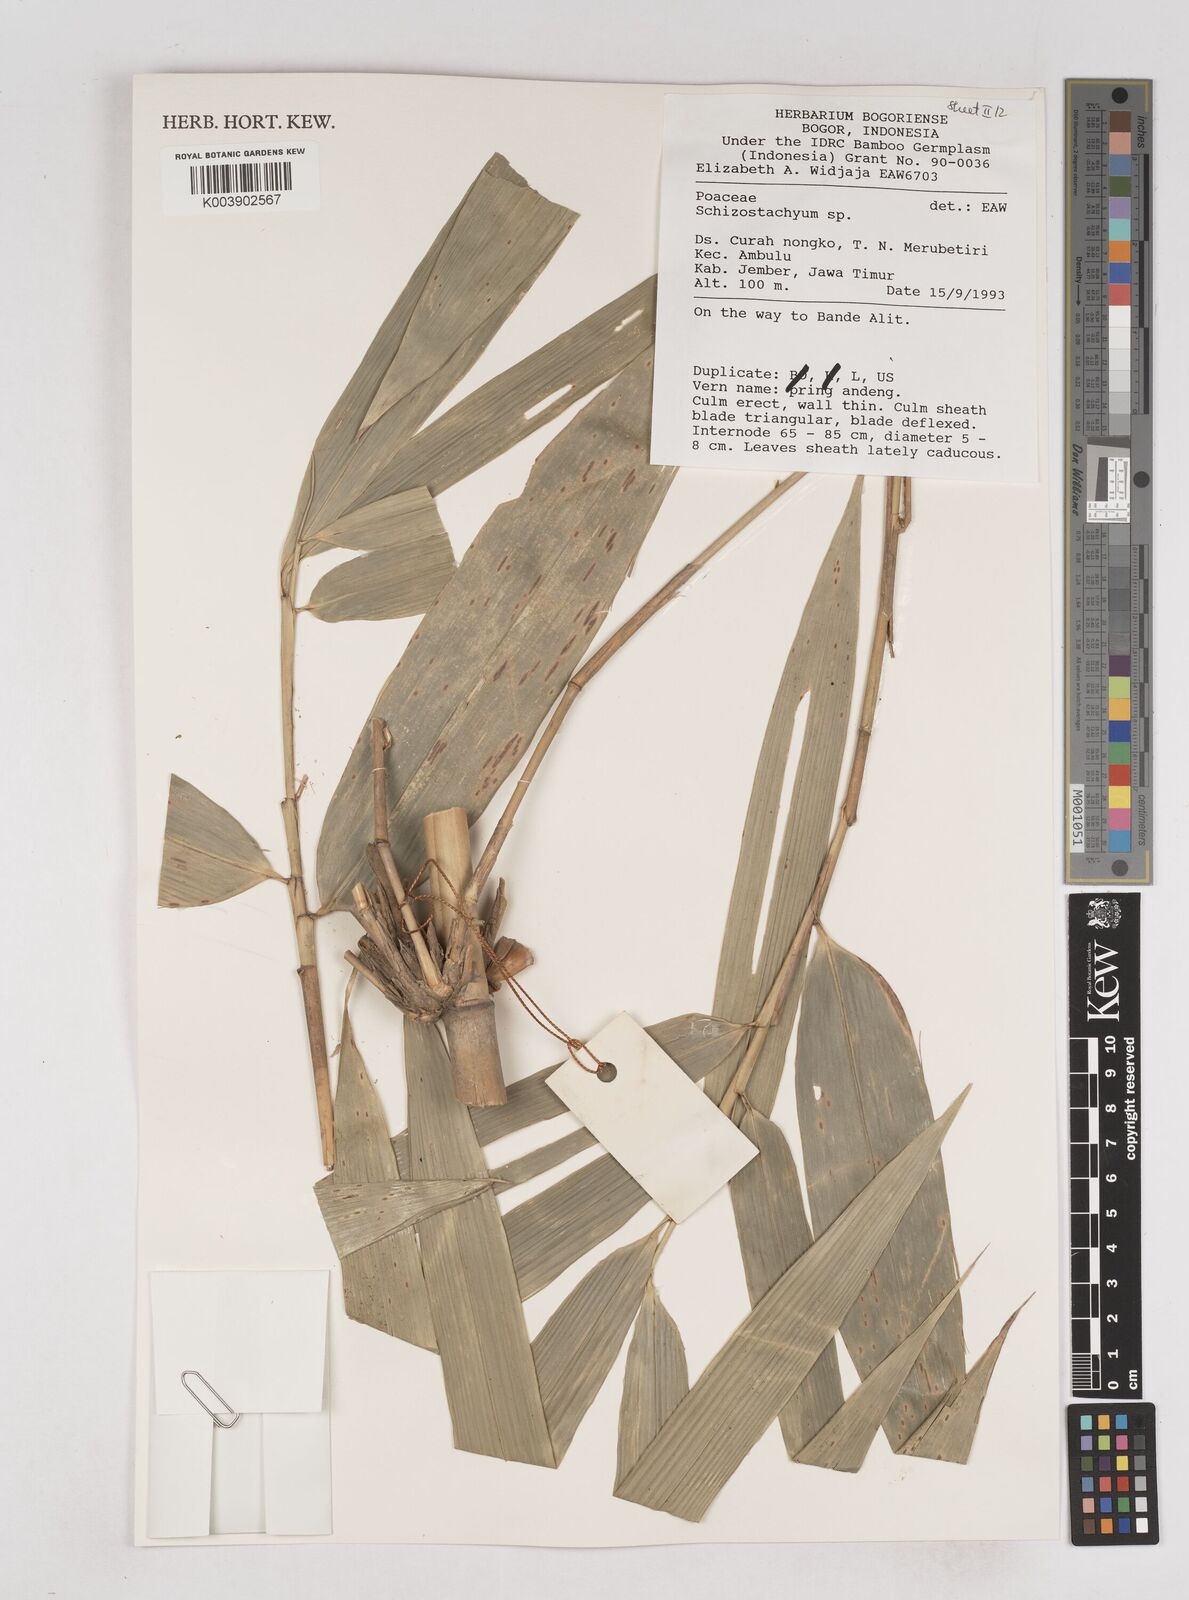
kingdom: Plantae
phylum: Tracheophyta
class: Liliopsida
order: Poales
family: Poaceae
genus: Schizostachyum
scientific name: Schizostachyum
